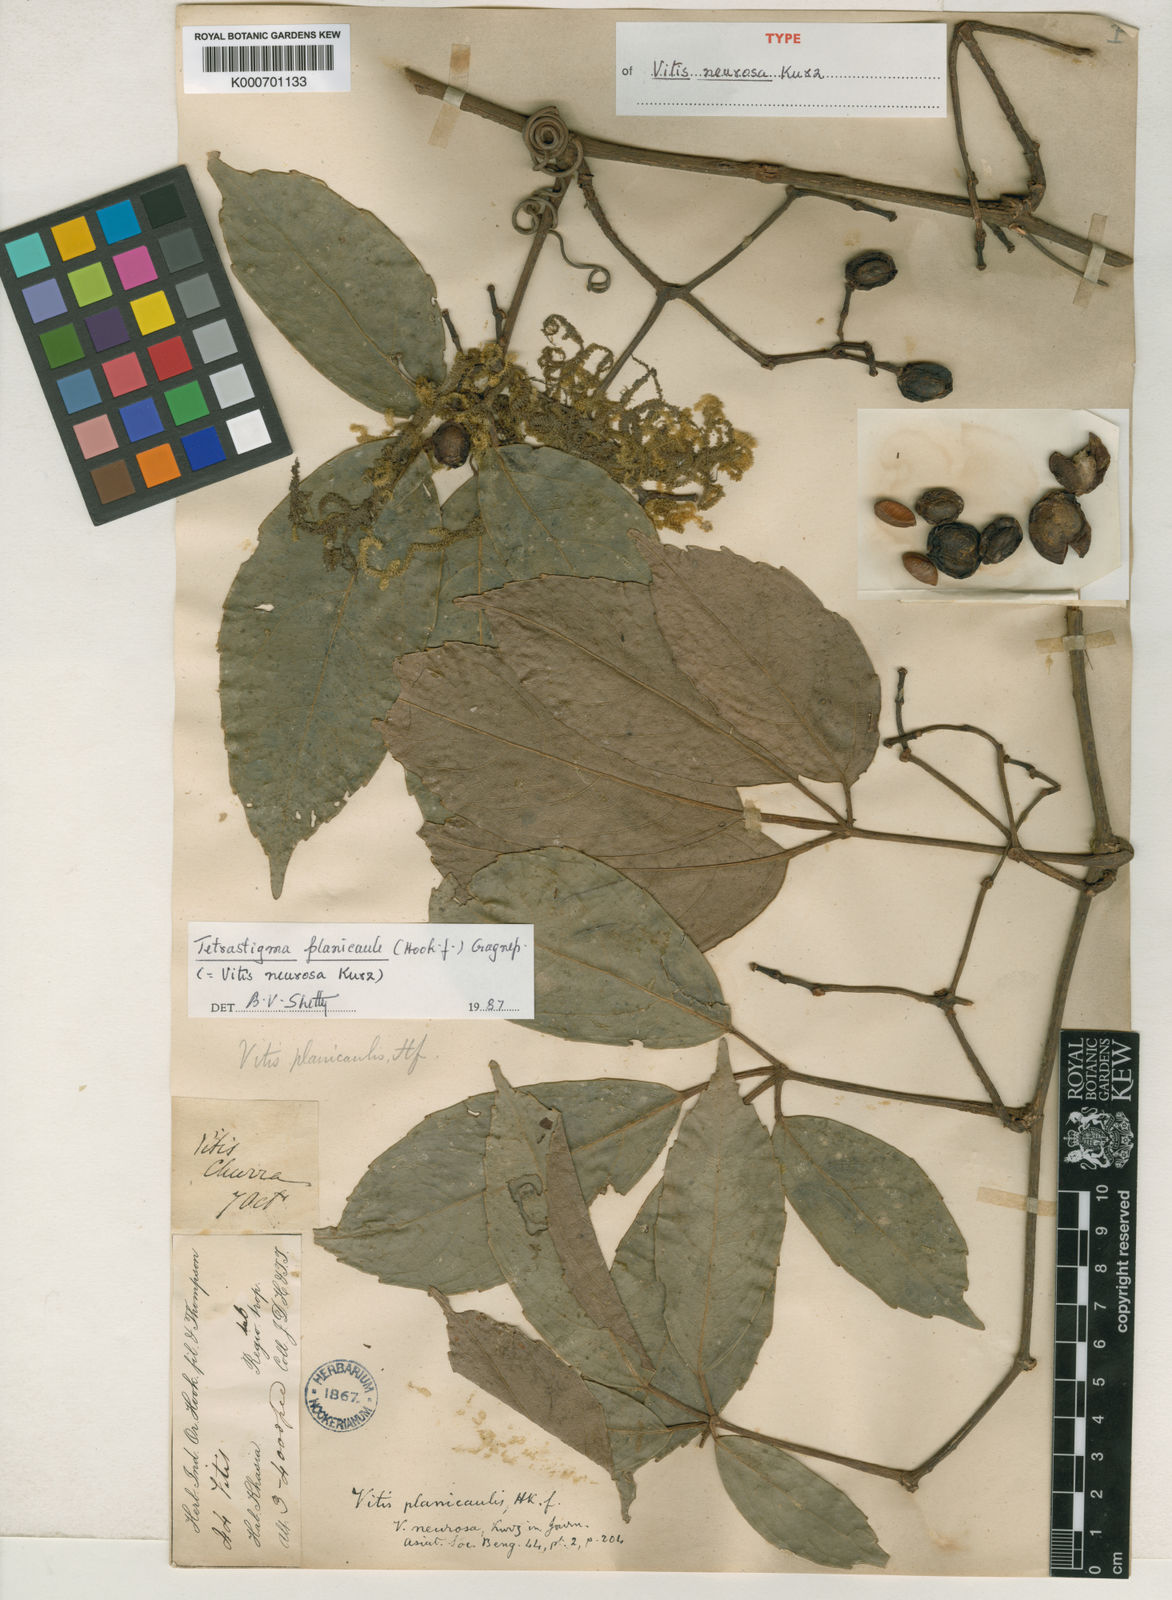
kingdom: Plantae
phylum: Tracheophyta
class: Magnoliopsida
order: Vitales
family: Vitaceae
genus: Tetrastigma
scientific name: Tetrastigma planicaule
